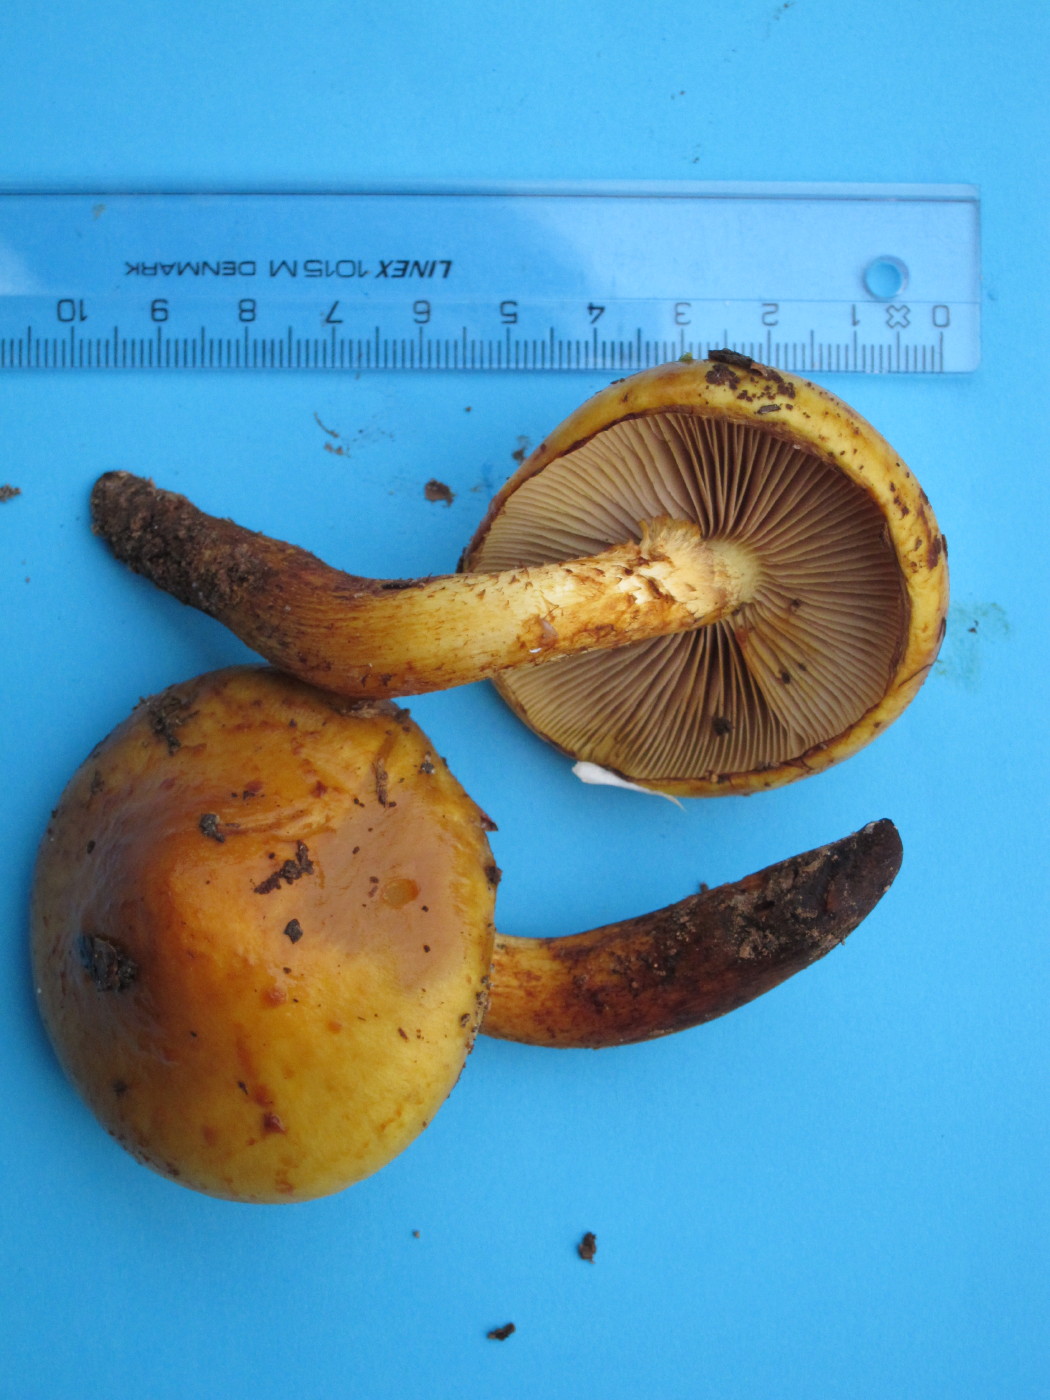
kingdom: Fungi
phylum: Basidiomycota
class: Agaricomycetes
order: Agaricales
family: Strophariaceae
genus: Pholiota
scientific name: Pholiota adiposa
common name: højtsiddende skælhat
